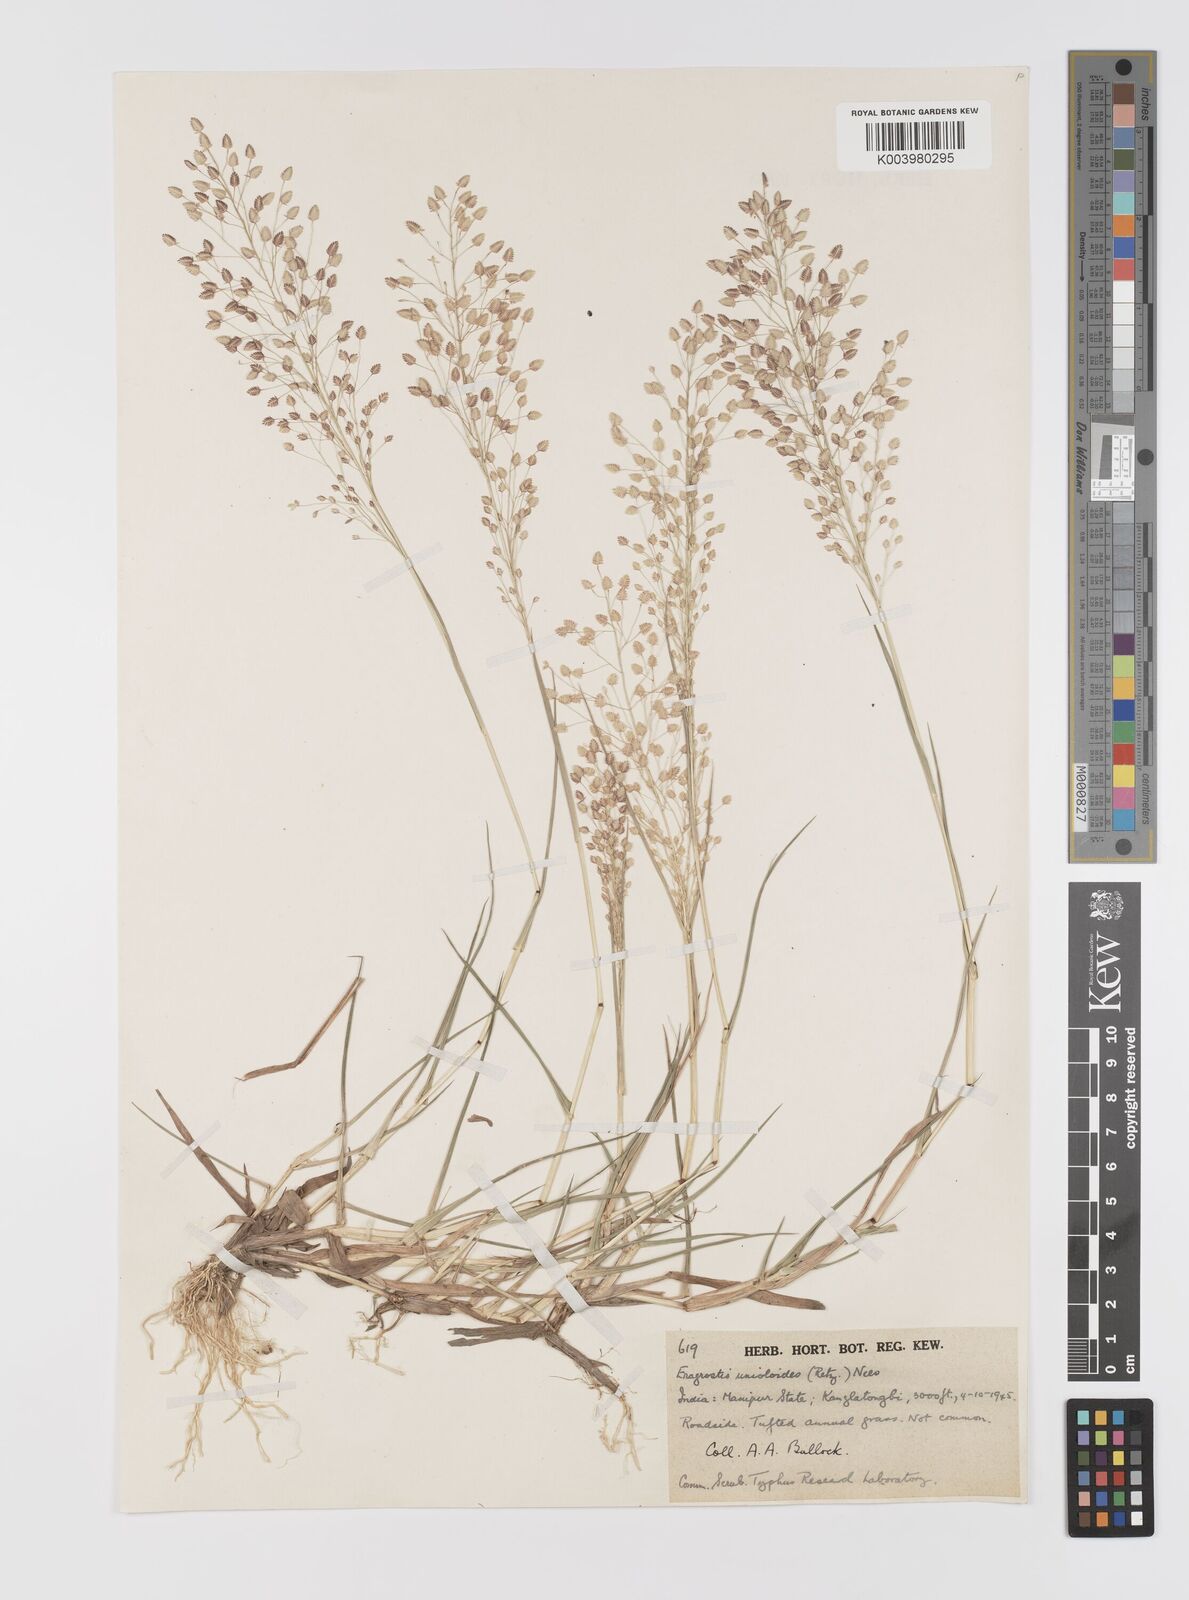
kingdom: Plantae
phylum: Tracheophyta
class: Liliopsida
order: Poales
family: Poaceae
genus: Eragrostis
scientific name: Eragrostis unioloides
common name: Chinese lovegrass
